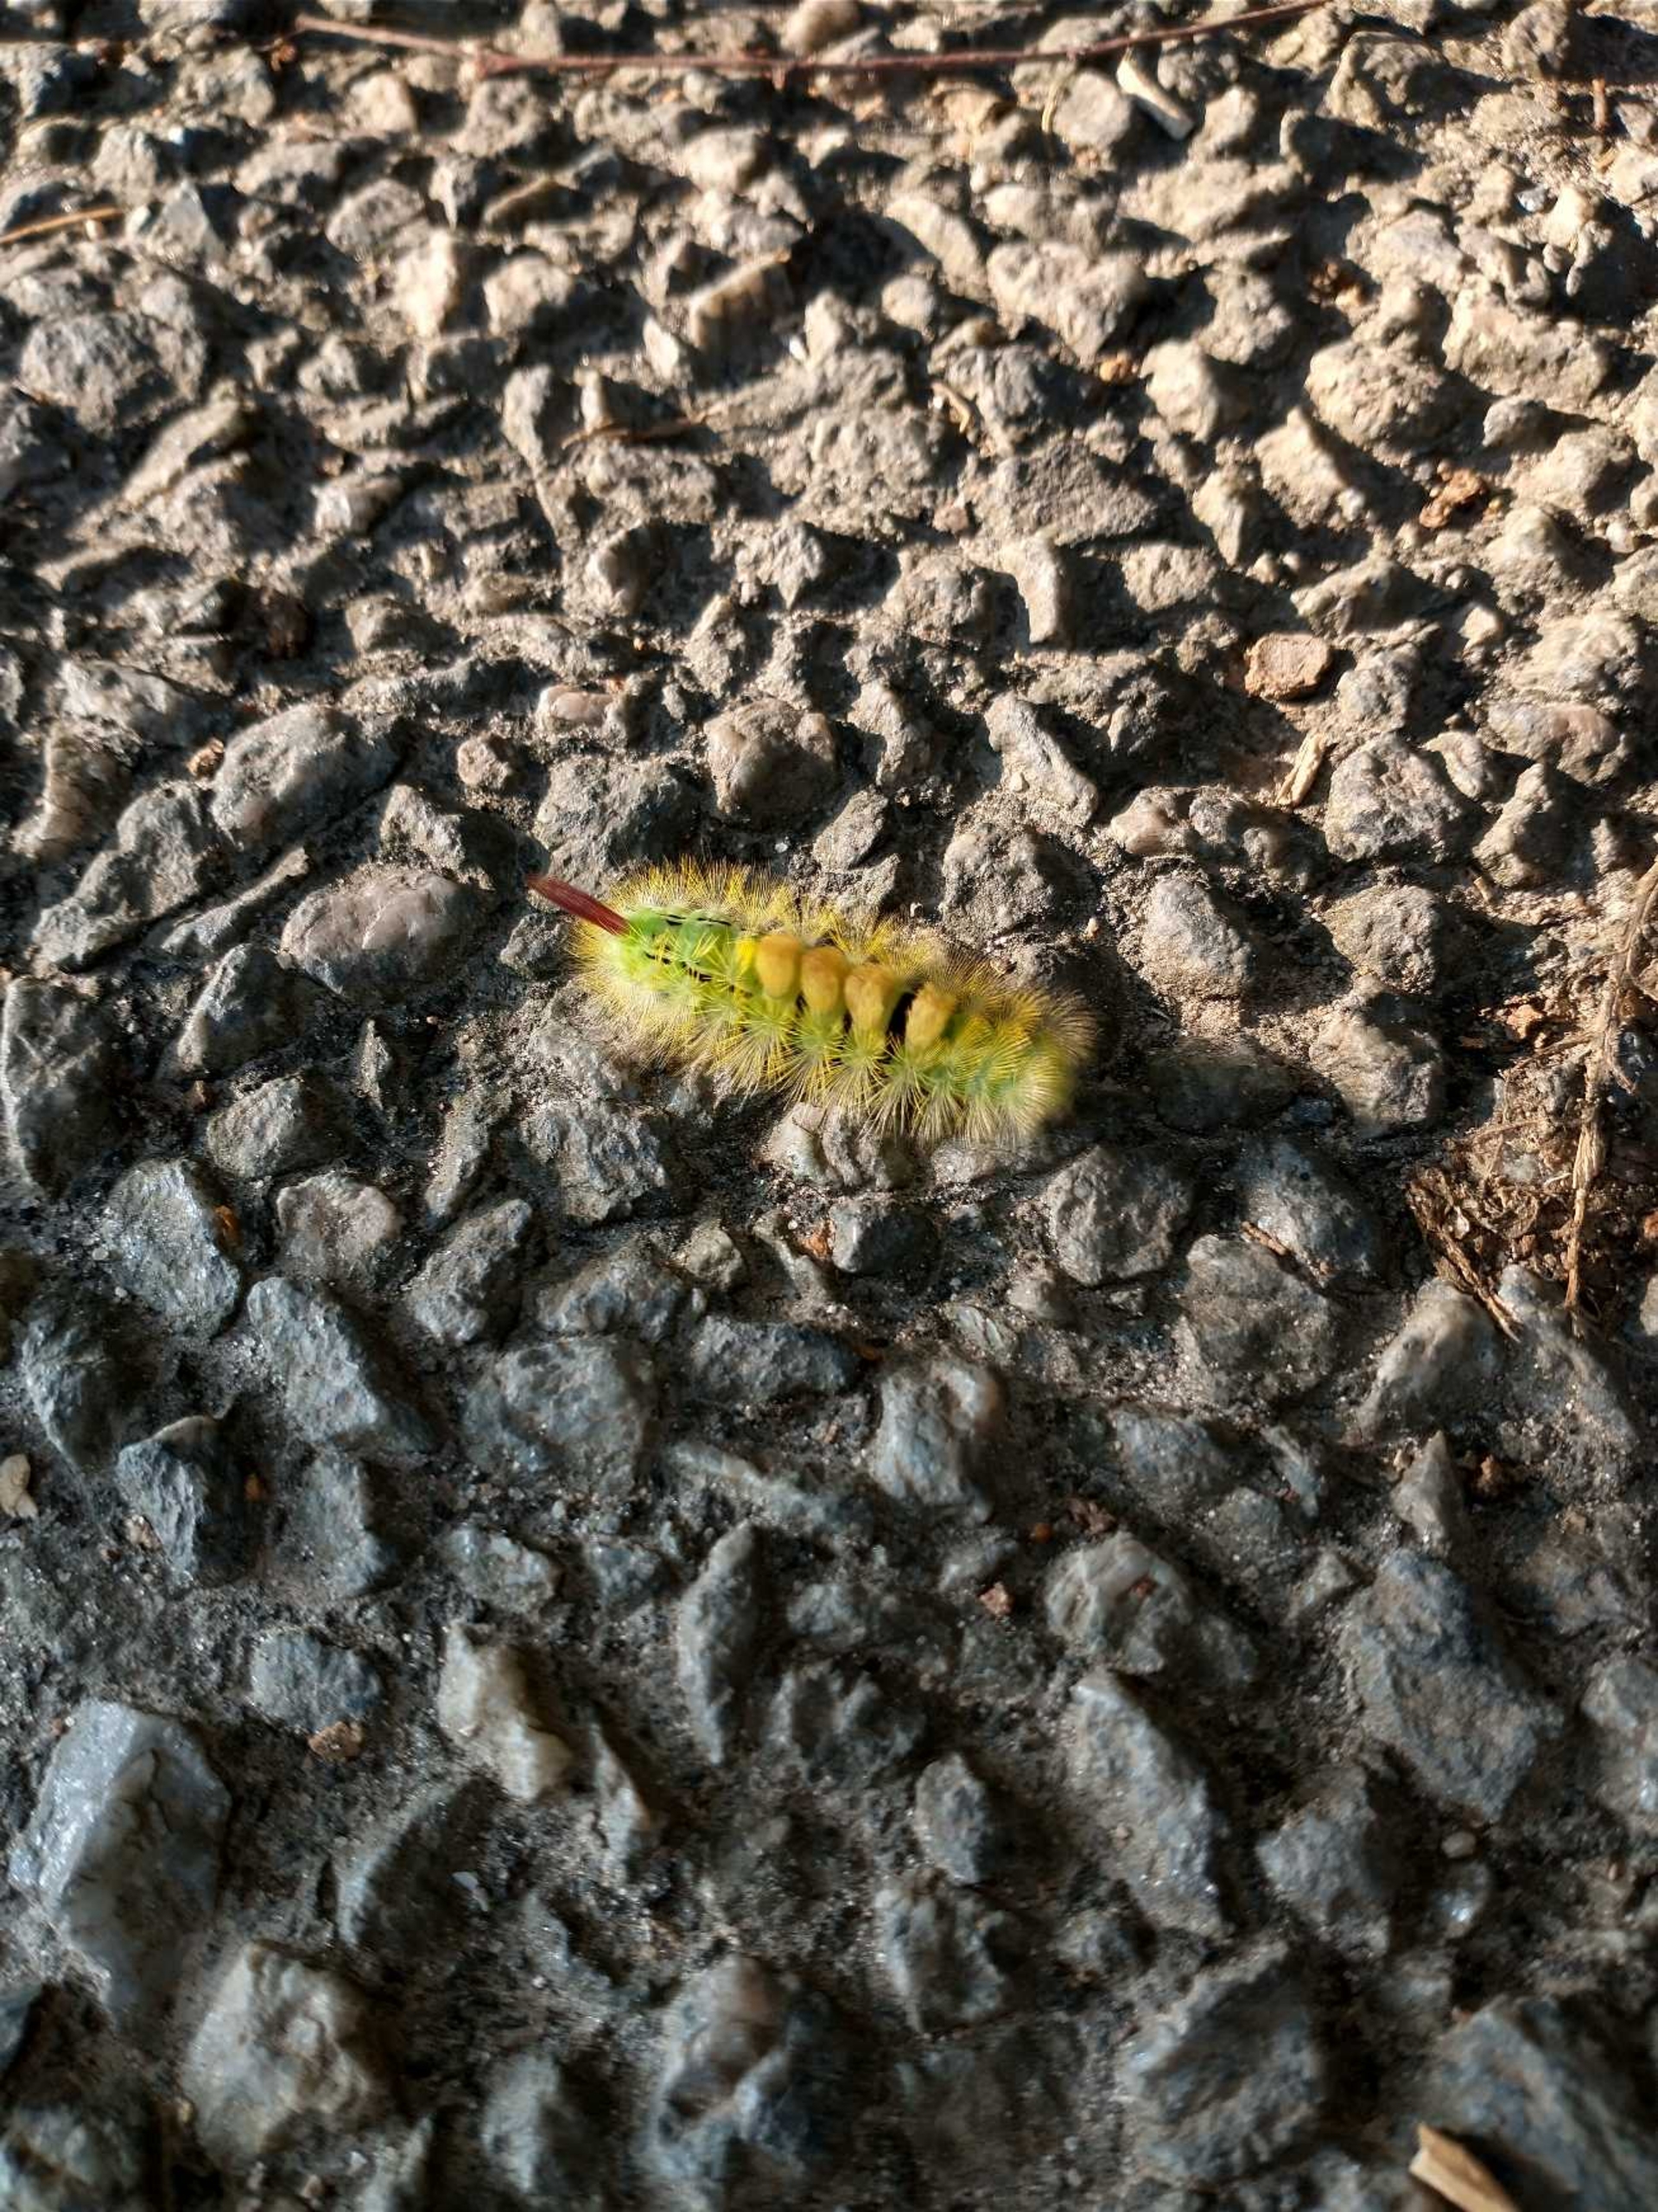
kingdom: Animalia
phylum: Arthropoda
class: Insecta
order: Lepidoptera
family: Erebidae
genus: Calliteara
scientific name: Calliteara pudibunda
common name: Bøgenonne
